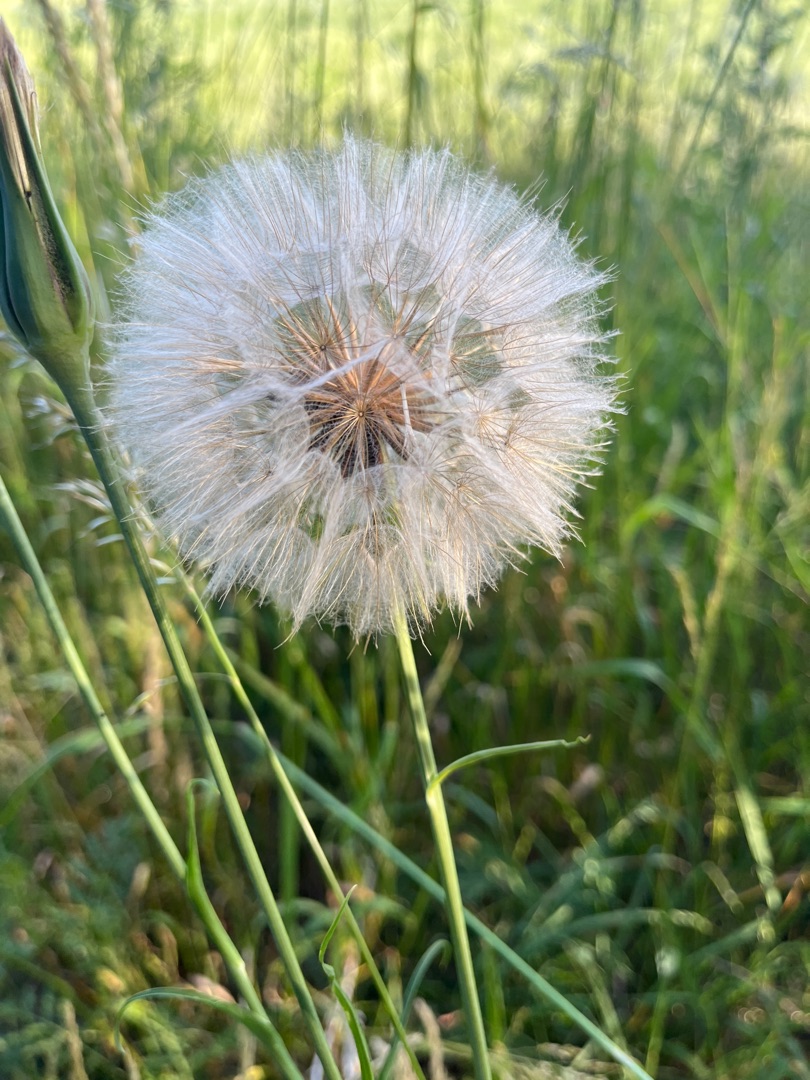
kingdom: Plantae
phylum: Tracheophyta
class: Magnoliopsida
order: Asterales
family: Asteraceae
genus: Tragopogon
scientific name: Tragopogon pratensis
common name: Gedeskæg
